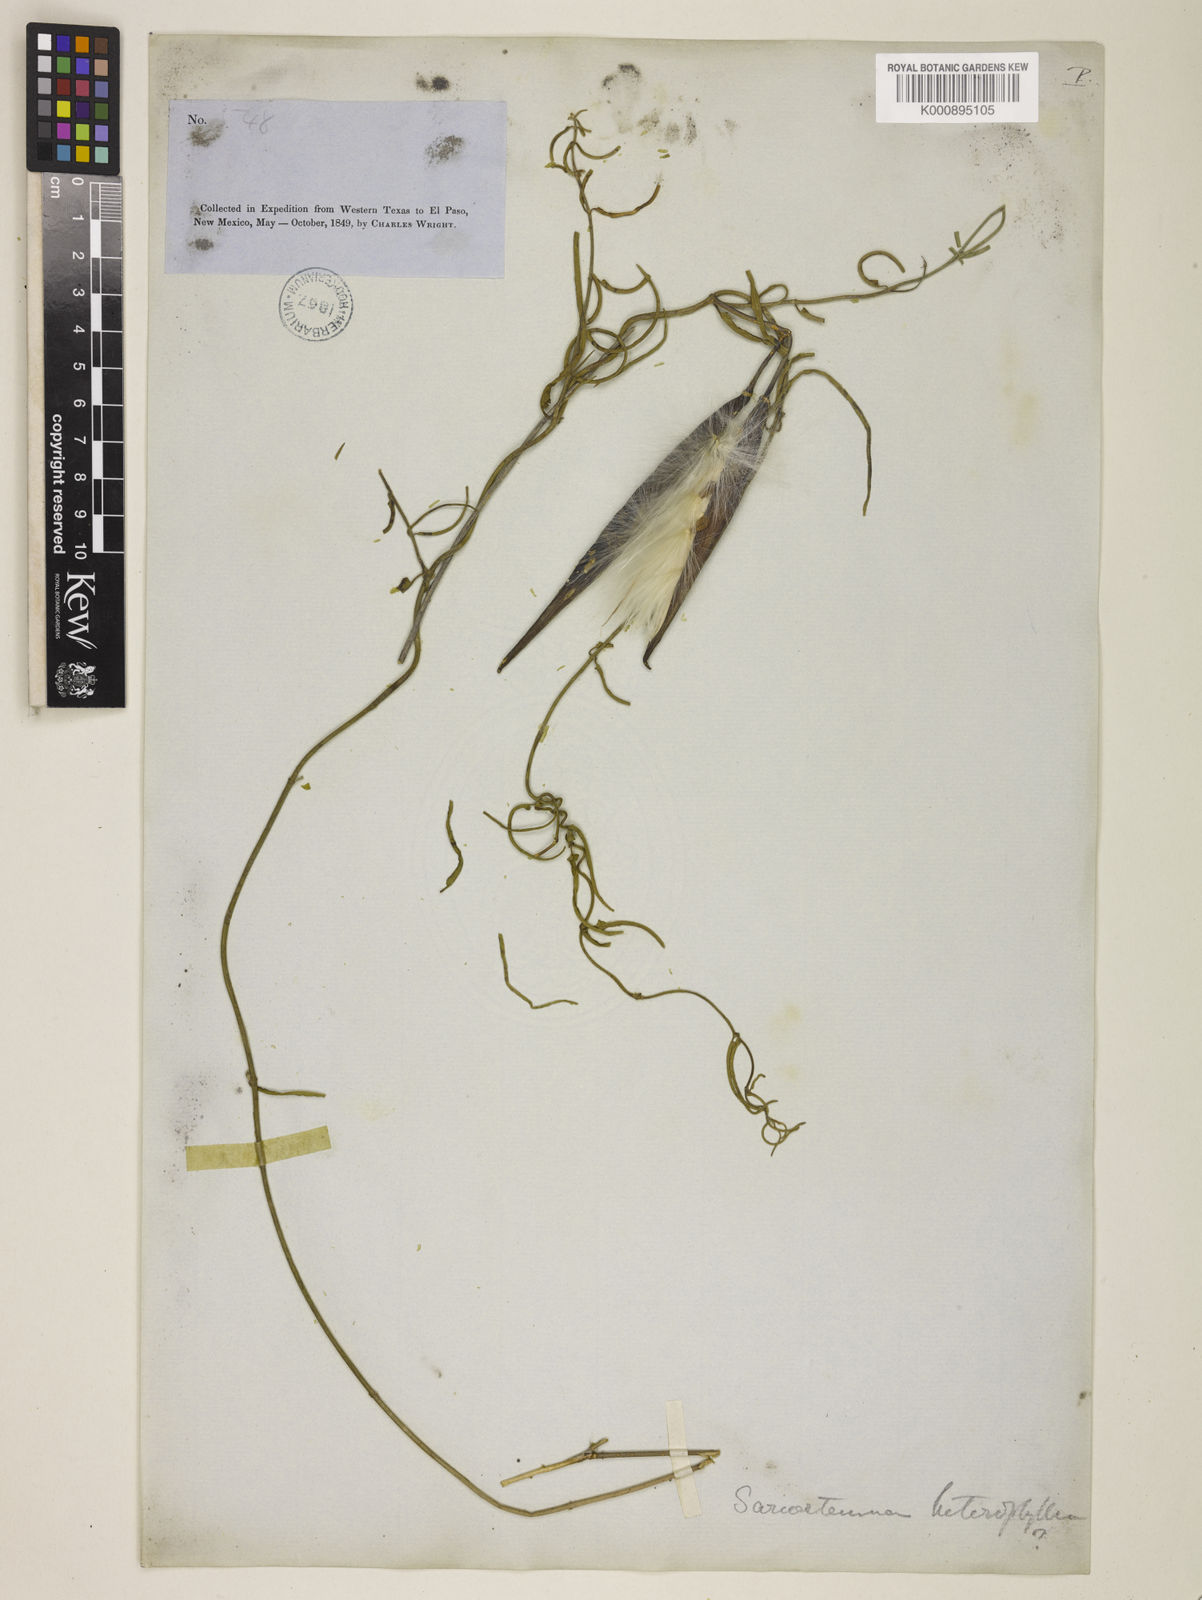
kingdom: Plantae
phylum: Tracheophyta
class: Magnoliopsida
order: Gentianales
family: Apocynaceae
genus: Funastrum
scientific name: Funastrum cynanchoides
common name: Climbing-milkweed
